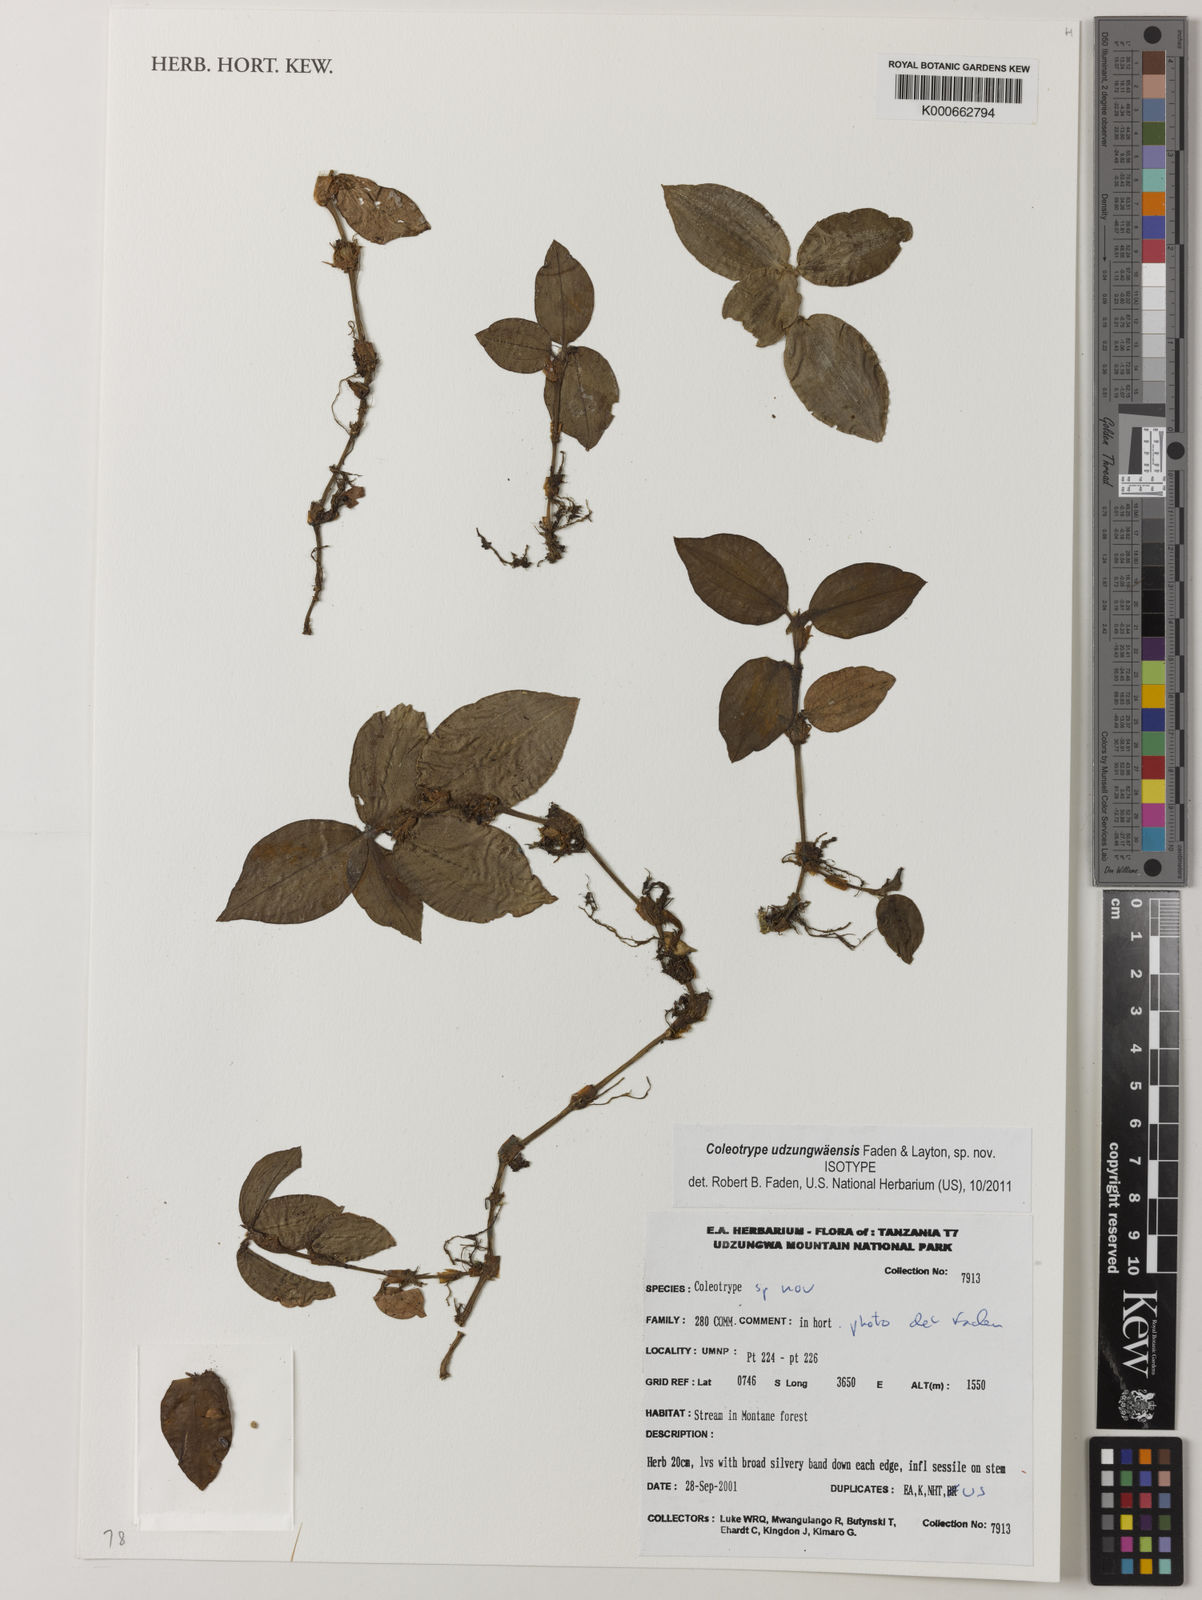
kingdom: Plantae
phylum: Tracheophyta
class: Liliopsida
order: Commelinales
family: Commelinaceae
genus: Coleotrype
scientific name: Coleotrype udzungwaensis
